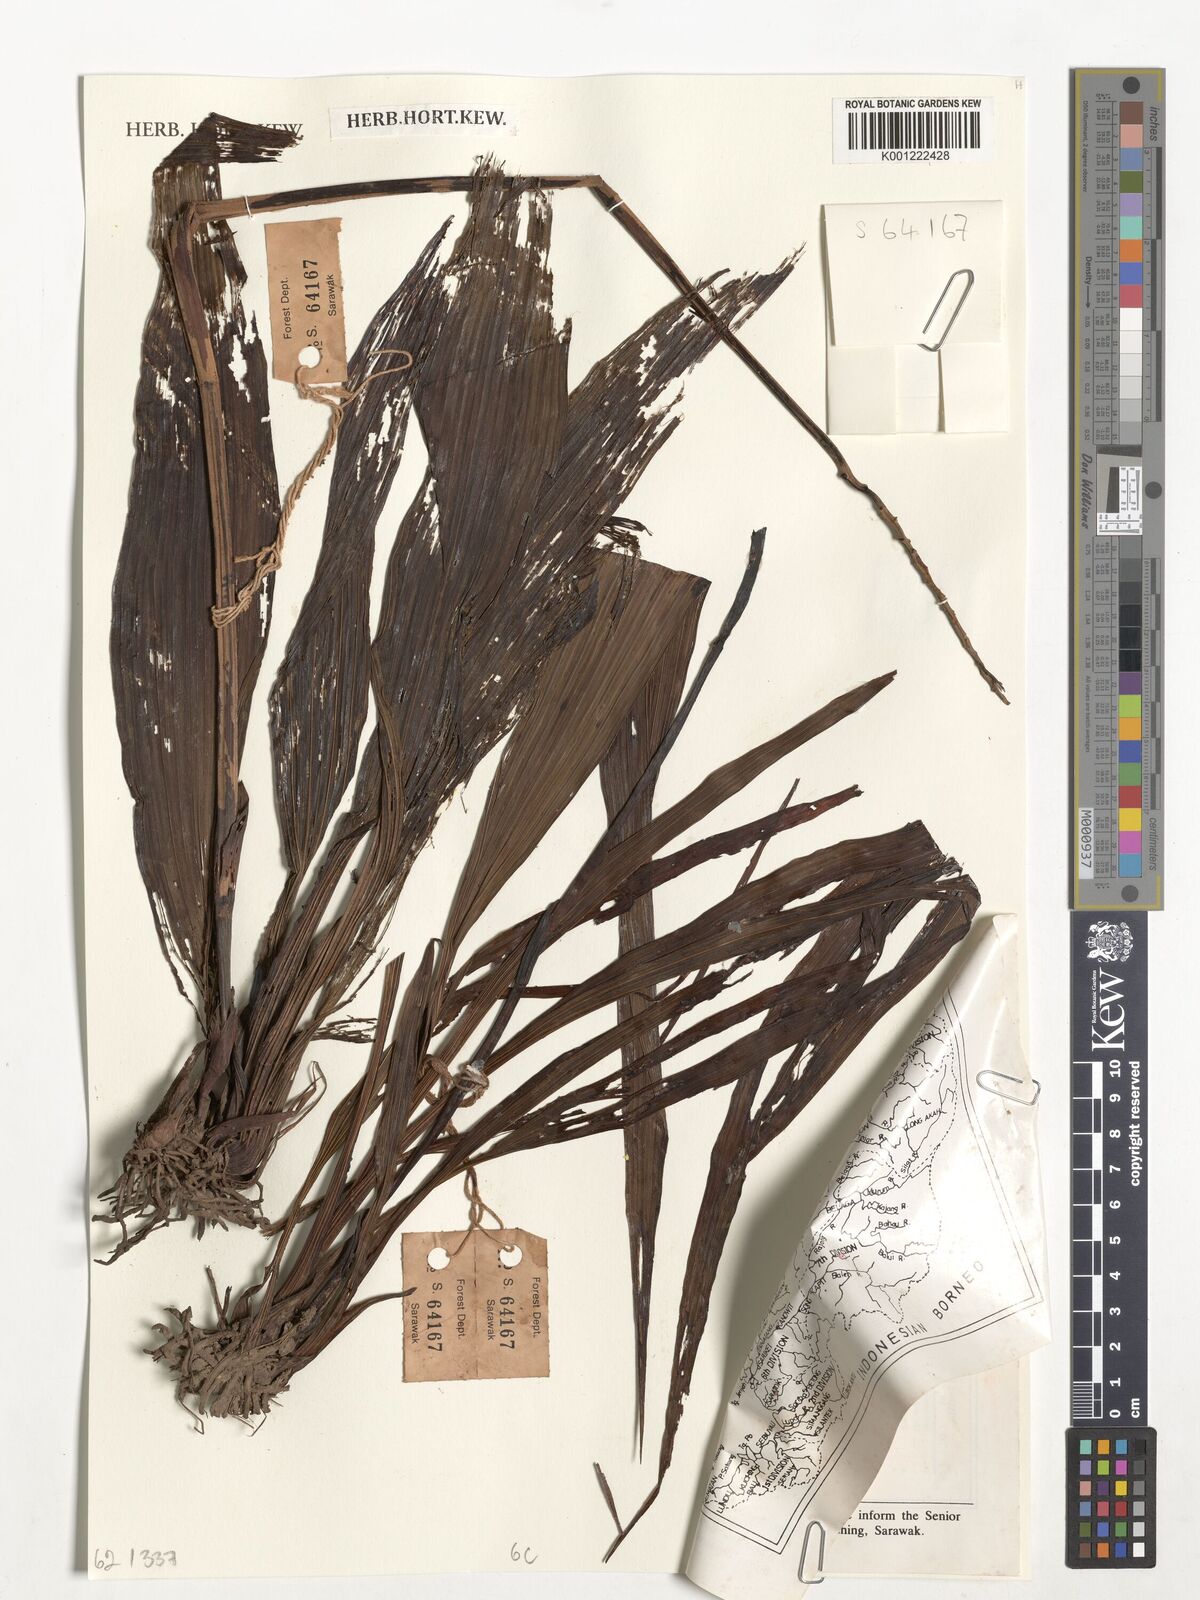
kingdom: Plantae
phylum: Tracheophyta
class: Liliopsida
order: Asparagales
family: Orchidaceae
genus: Spathoglottis
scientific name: Spathoglottis
